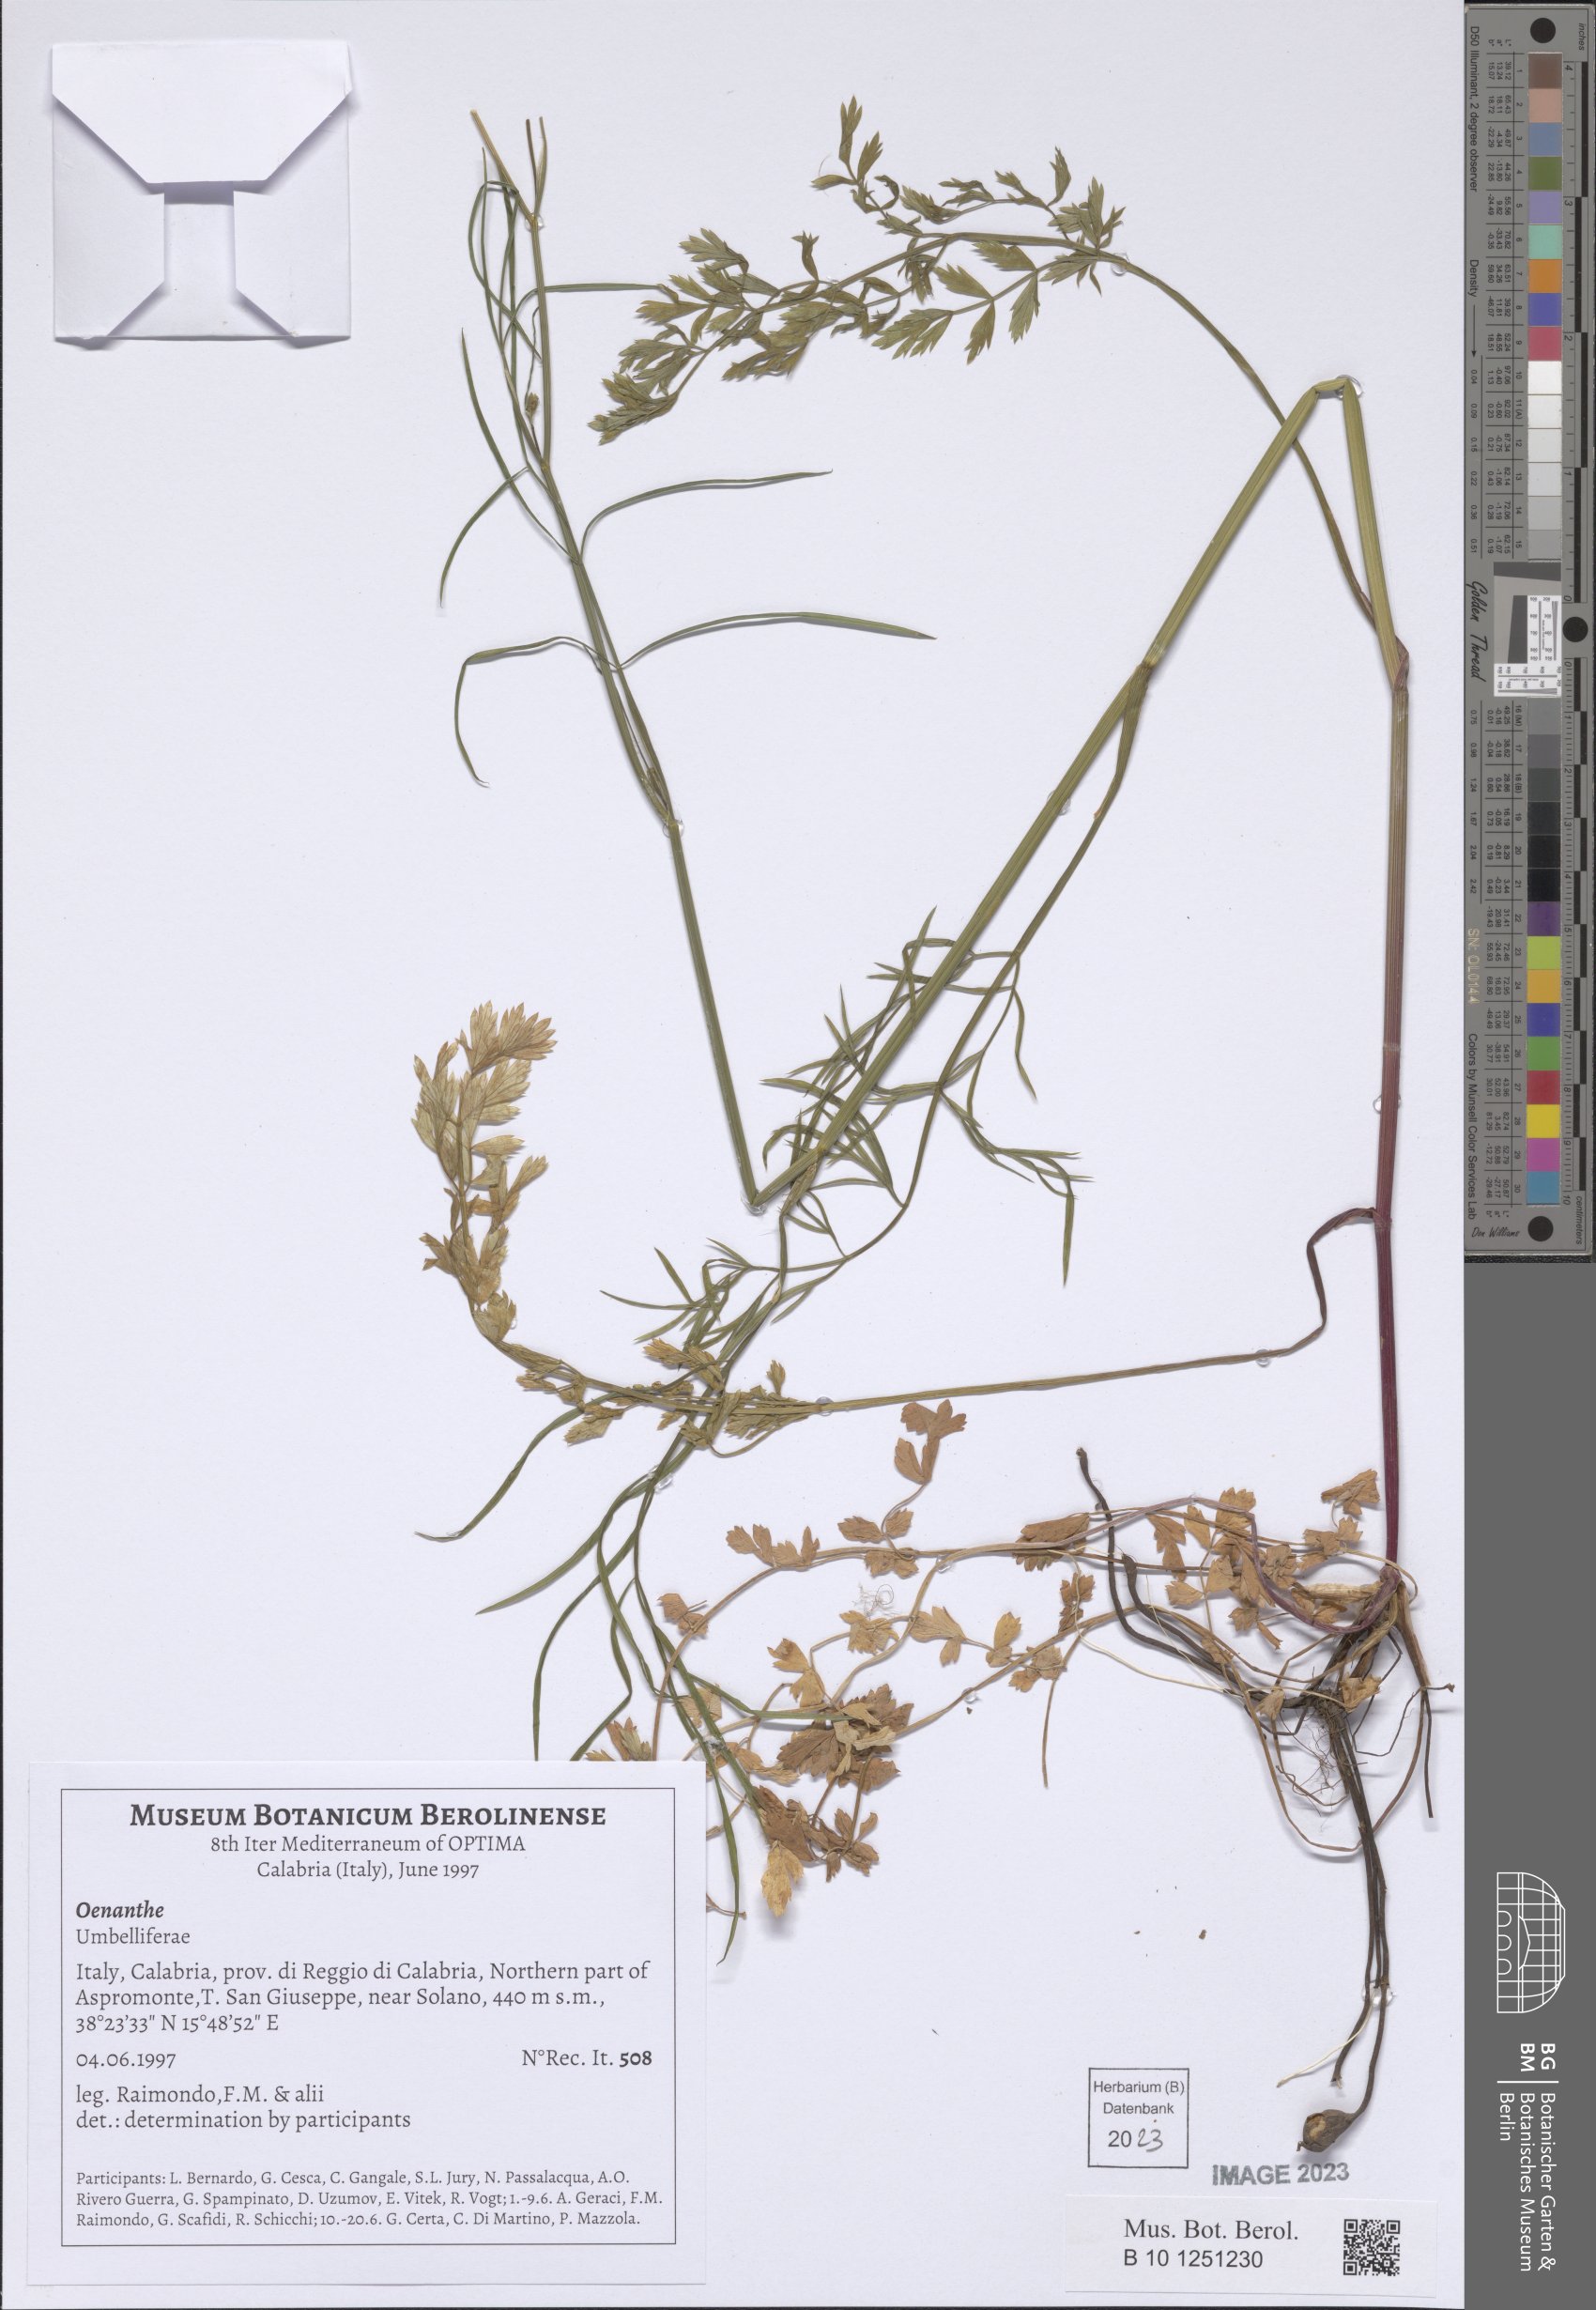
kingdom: Plantae
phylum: Tracheophyta
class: Magnoliopsida
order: Apiales
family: Apiaceae
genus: Oenanthe
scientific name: Oenanthe
